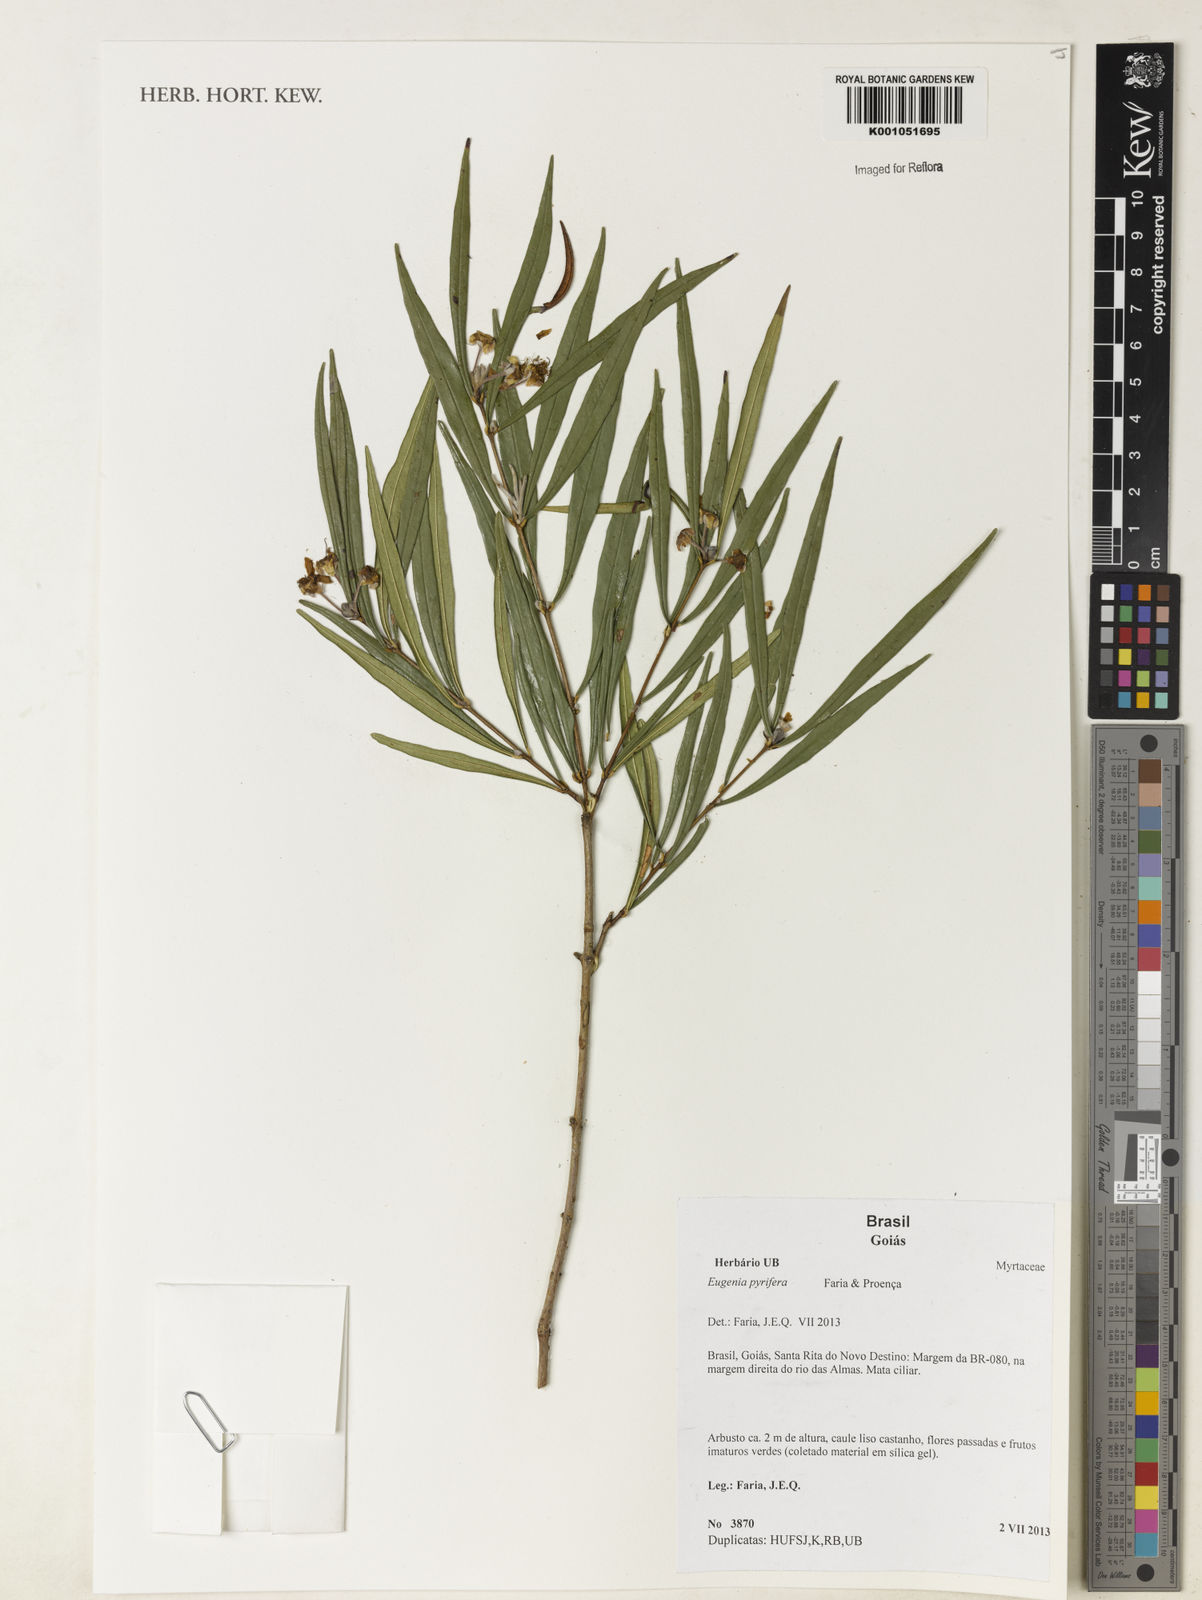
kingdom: Plantae
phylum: Tracheophyta
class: Magnoliopsida
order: Myrtales
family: Myrtaceae
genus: Eugenia
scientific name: Eugenia
